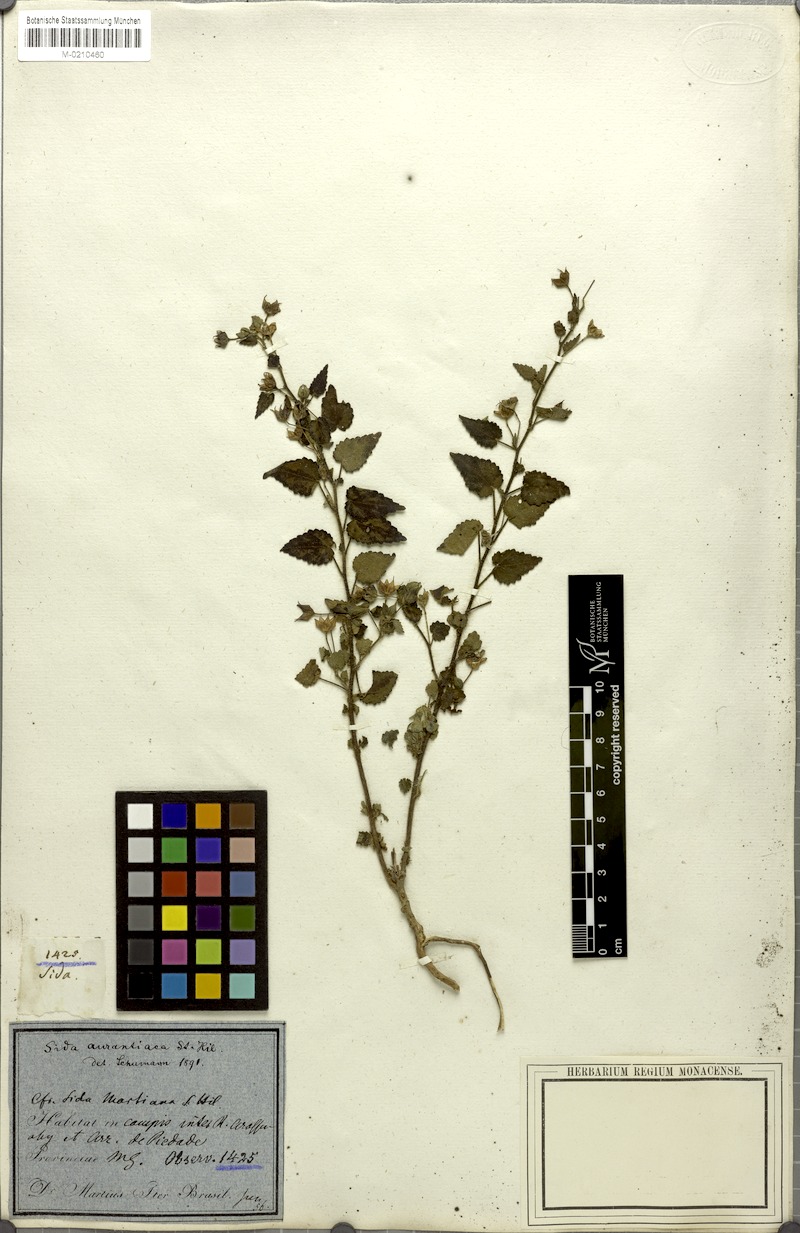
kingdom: Plantae
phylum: Tracheophyta
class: Magnoliopsida
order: Malvales
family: Malvaceae
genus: Sida
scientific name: Sida martiana
